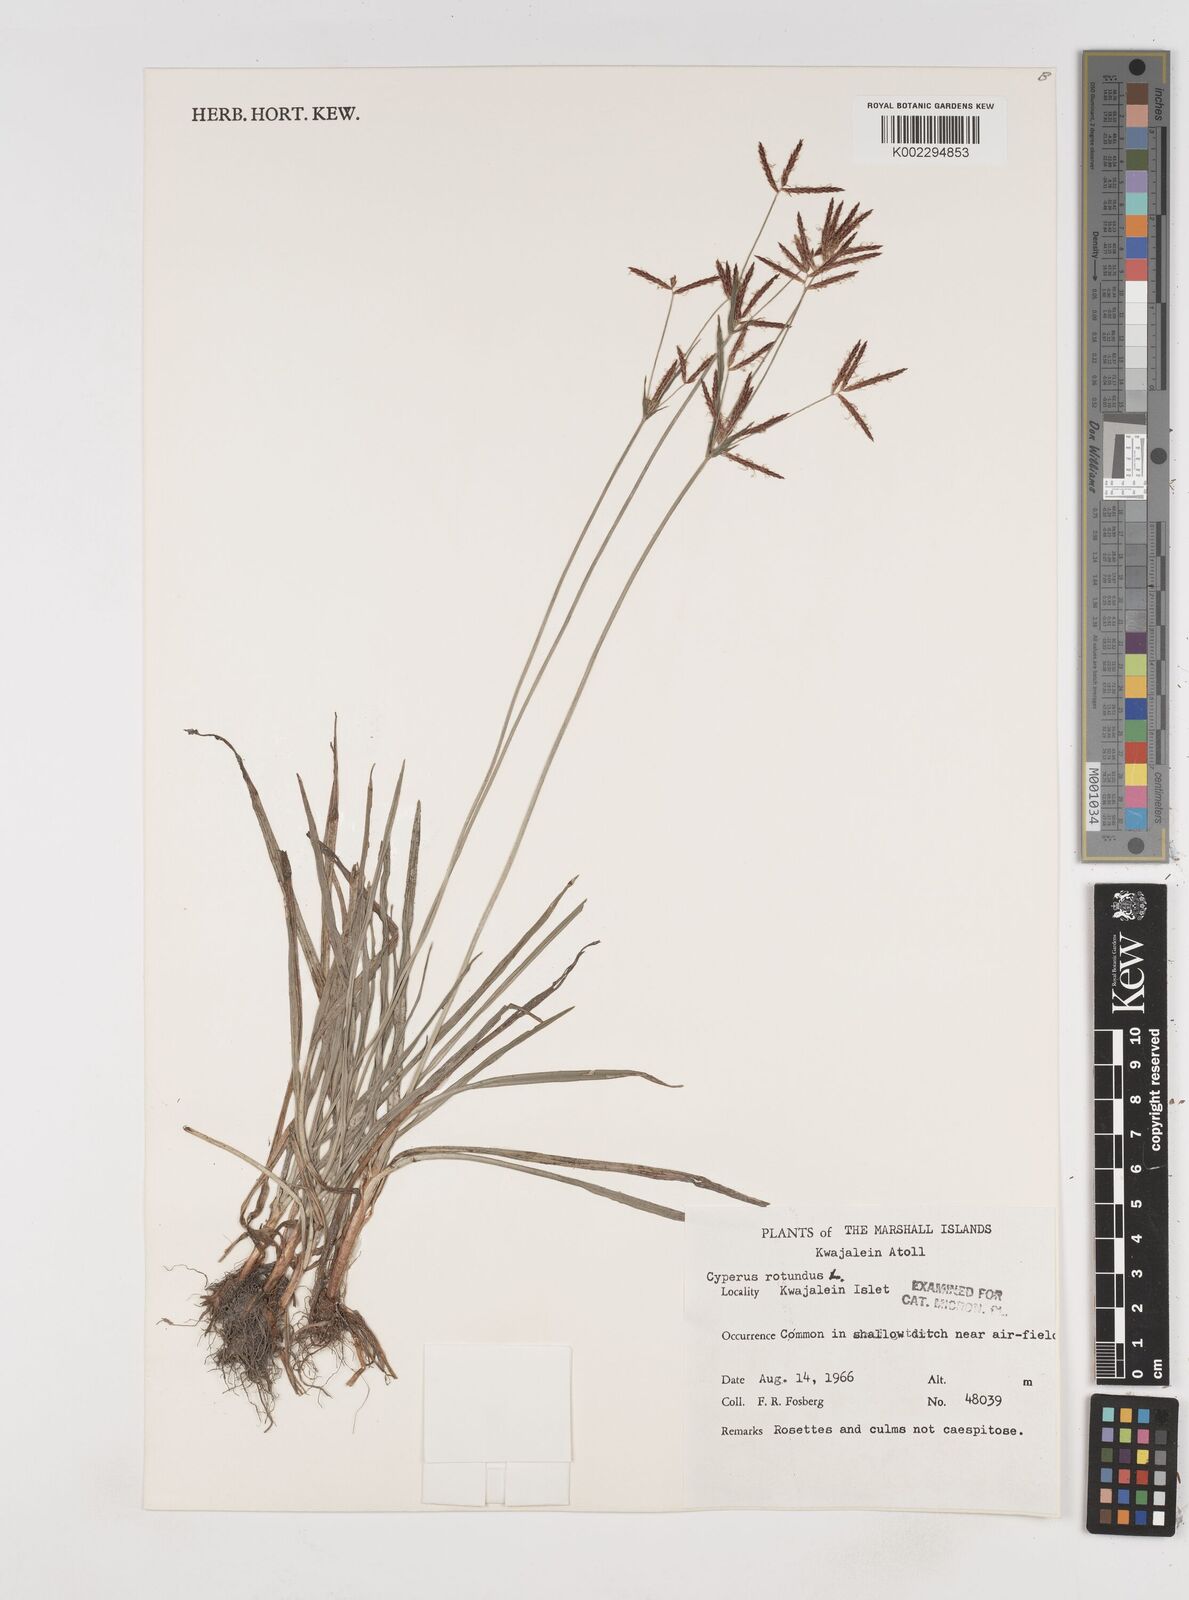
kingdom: Plantae
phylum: Tracheophyta
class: Liliopsida
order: Poales
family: Cyperaceae
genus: Cyperus
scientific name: Cyperus rotundus
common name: Nutgrass
